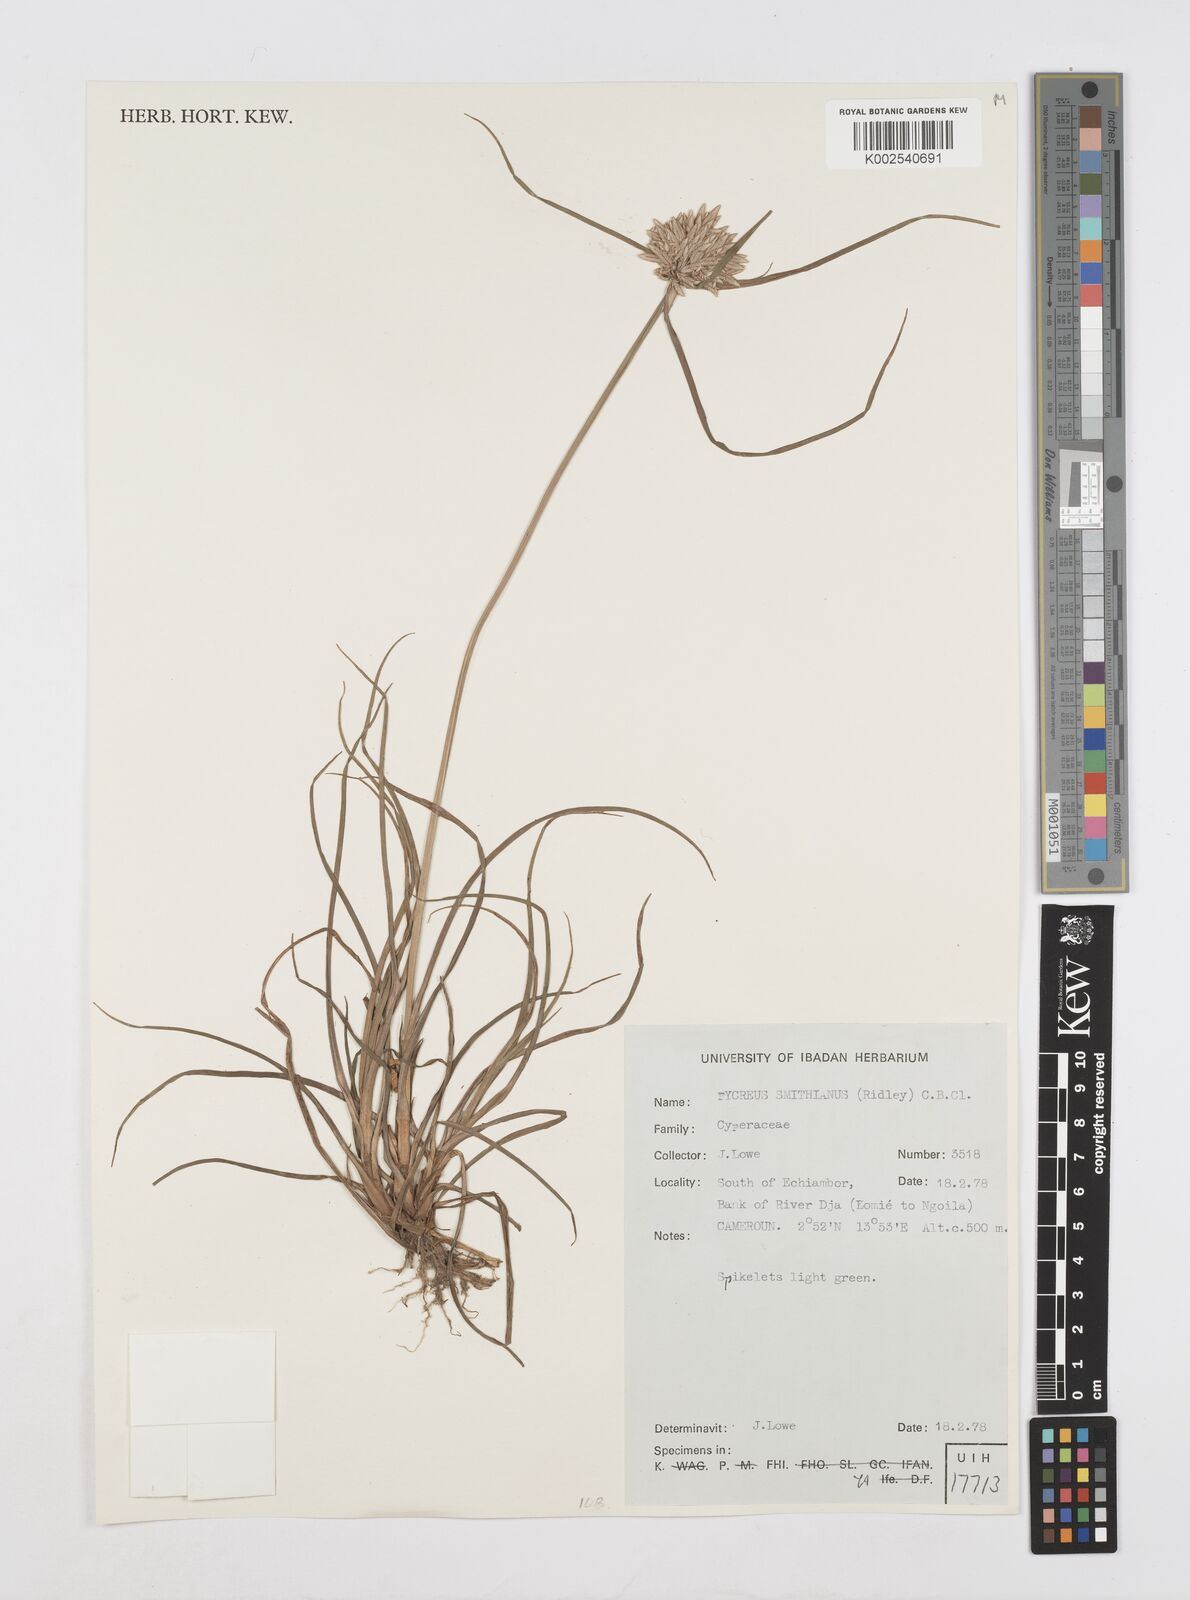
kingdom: Plantae
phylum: Tracheophyta
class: Liliopsida
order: Poales
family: Cyperaceae
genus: Cyperus
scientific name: Cyperus smithianus
